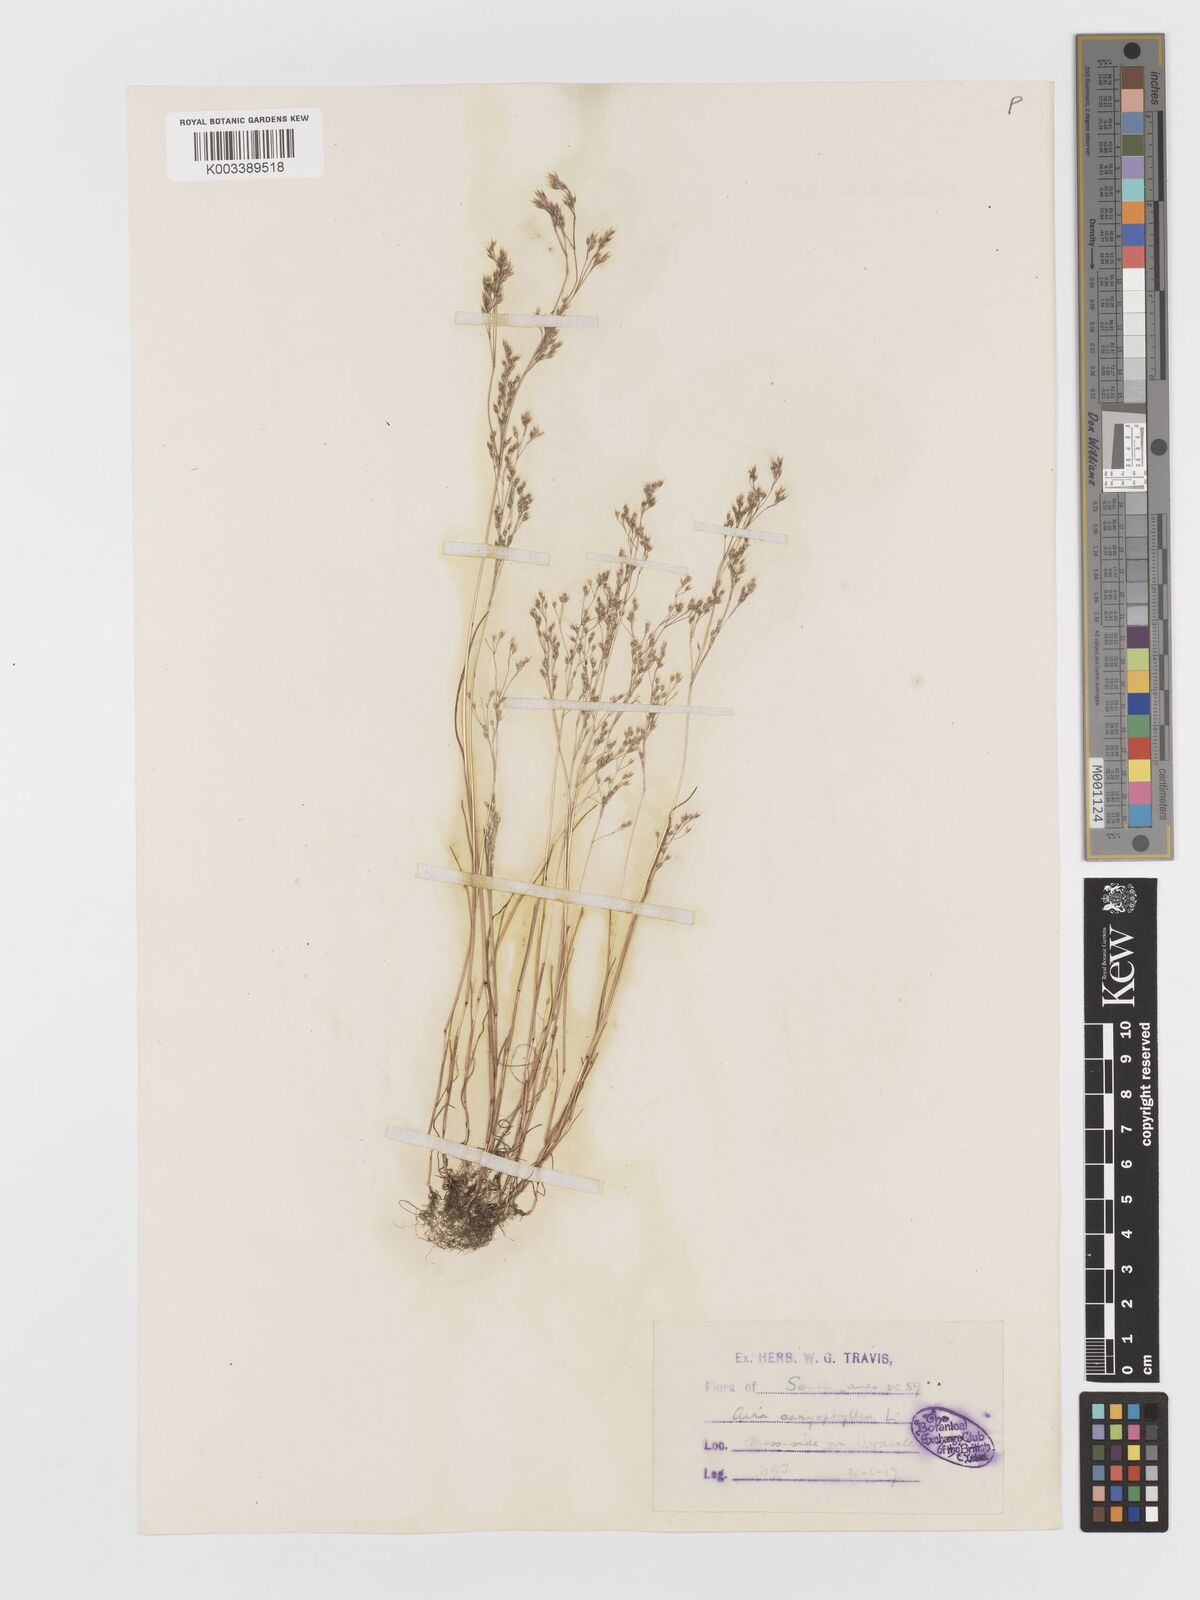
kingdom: Plantae
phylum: Tracheophyta
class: Liliopsida
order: Poales
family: Poaceae
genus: Aira
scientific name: Aira caryophyllea
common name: Silver hairgrass
